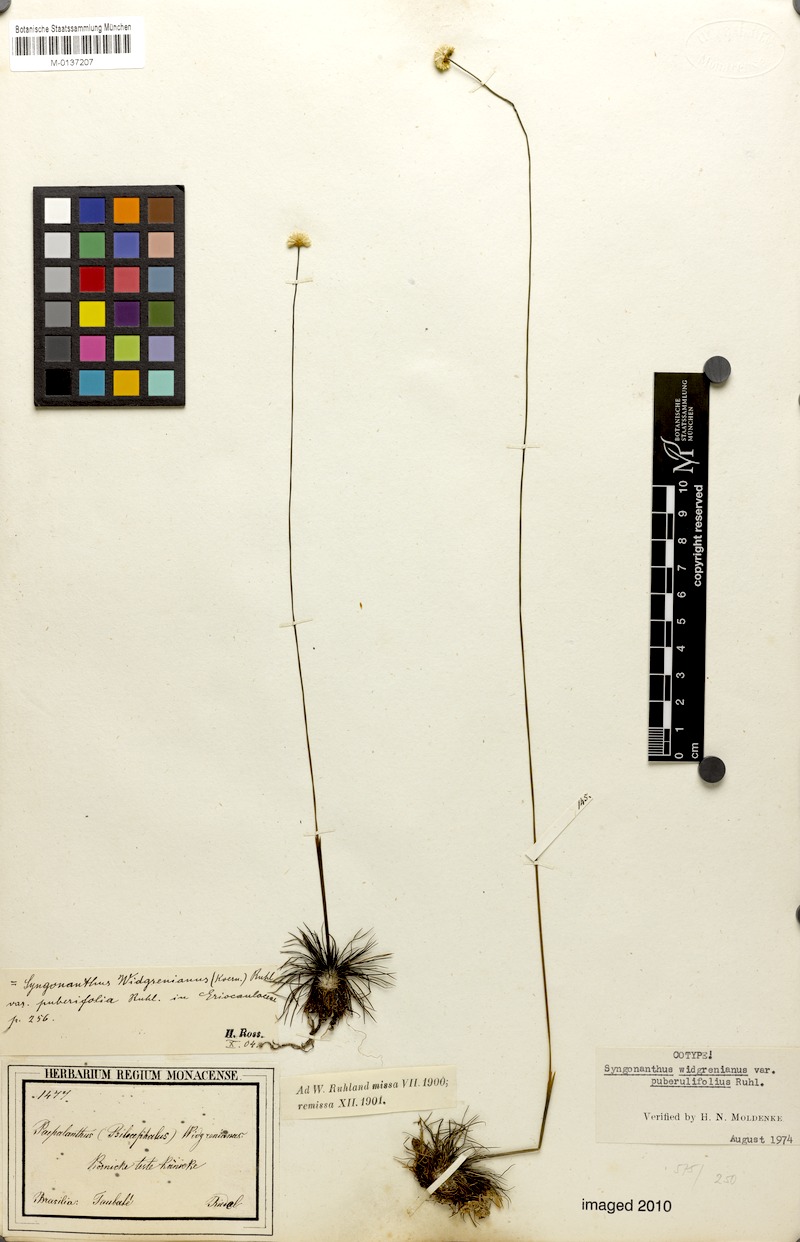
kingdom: Plantae
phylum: Tracheophyta
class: Liliopsida
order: Poales
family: Eriocaulaceae
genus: Syngonanthus
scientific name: Syngonanthus widgrenianus
